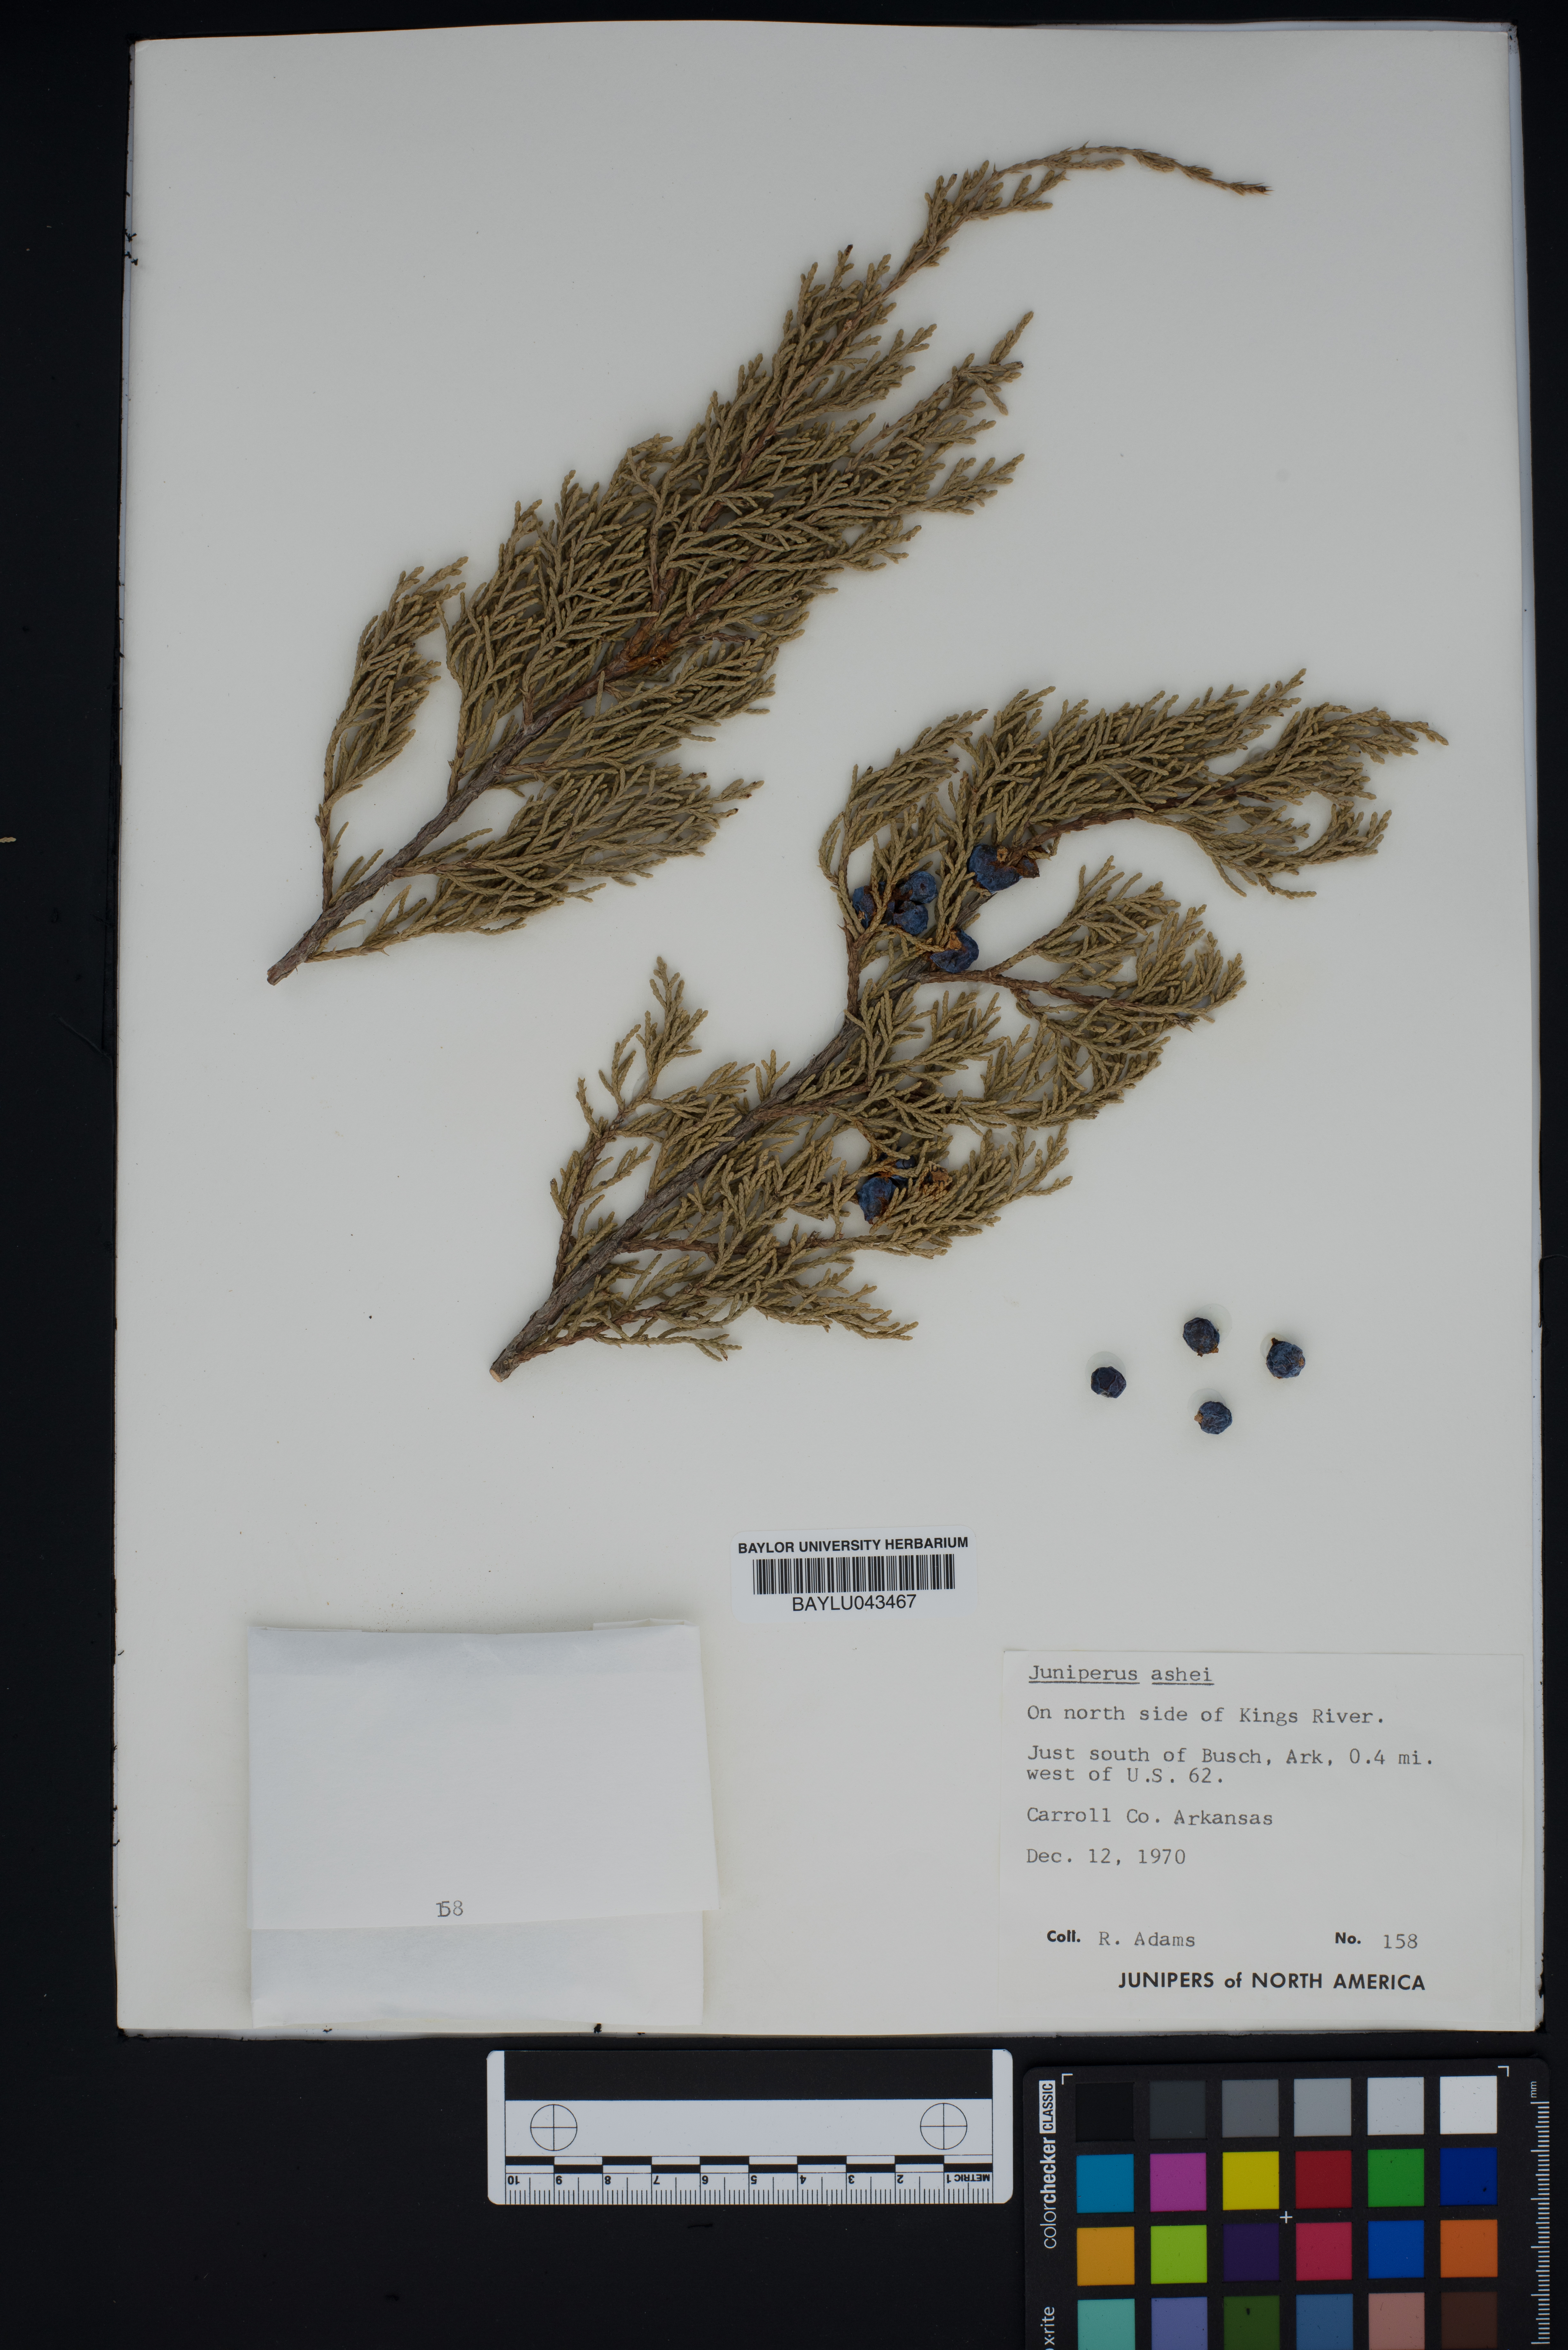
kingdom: Plantae
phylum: Tracheophyta
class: Pinopsida
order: Pinales
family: Cupressaceae
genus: Juniperus
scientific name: Juniperus ashei
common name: Mexican juniper
